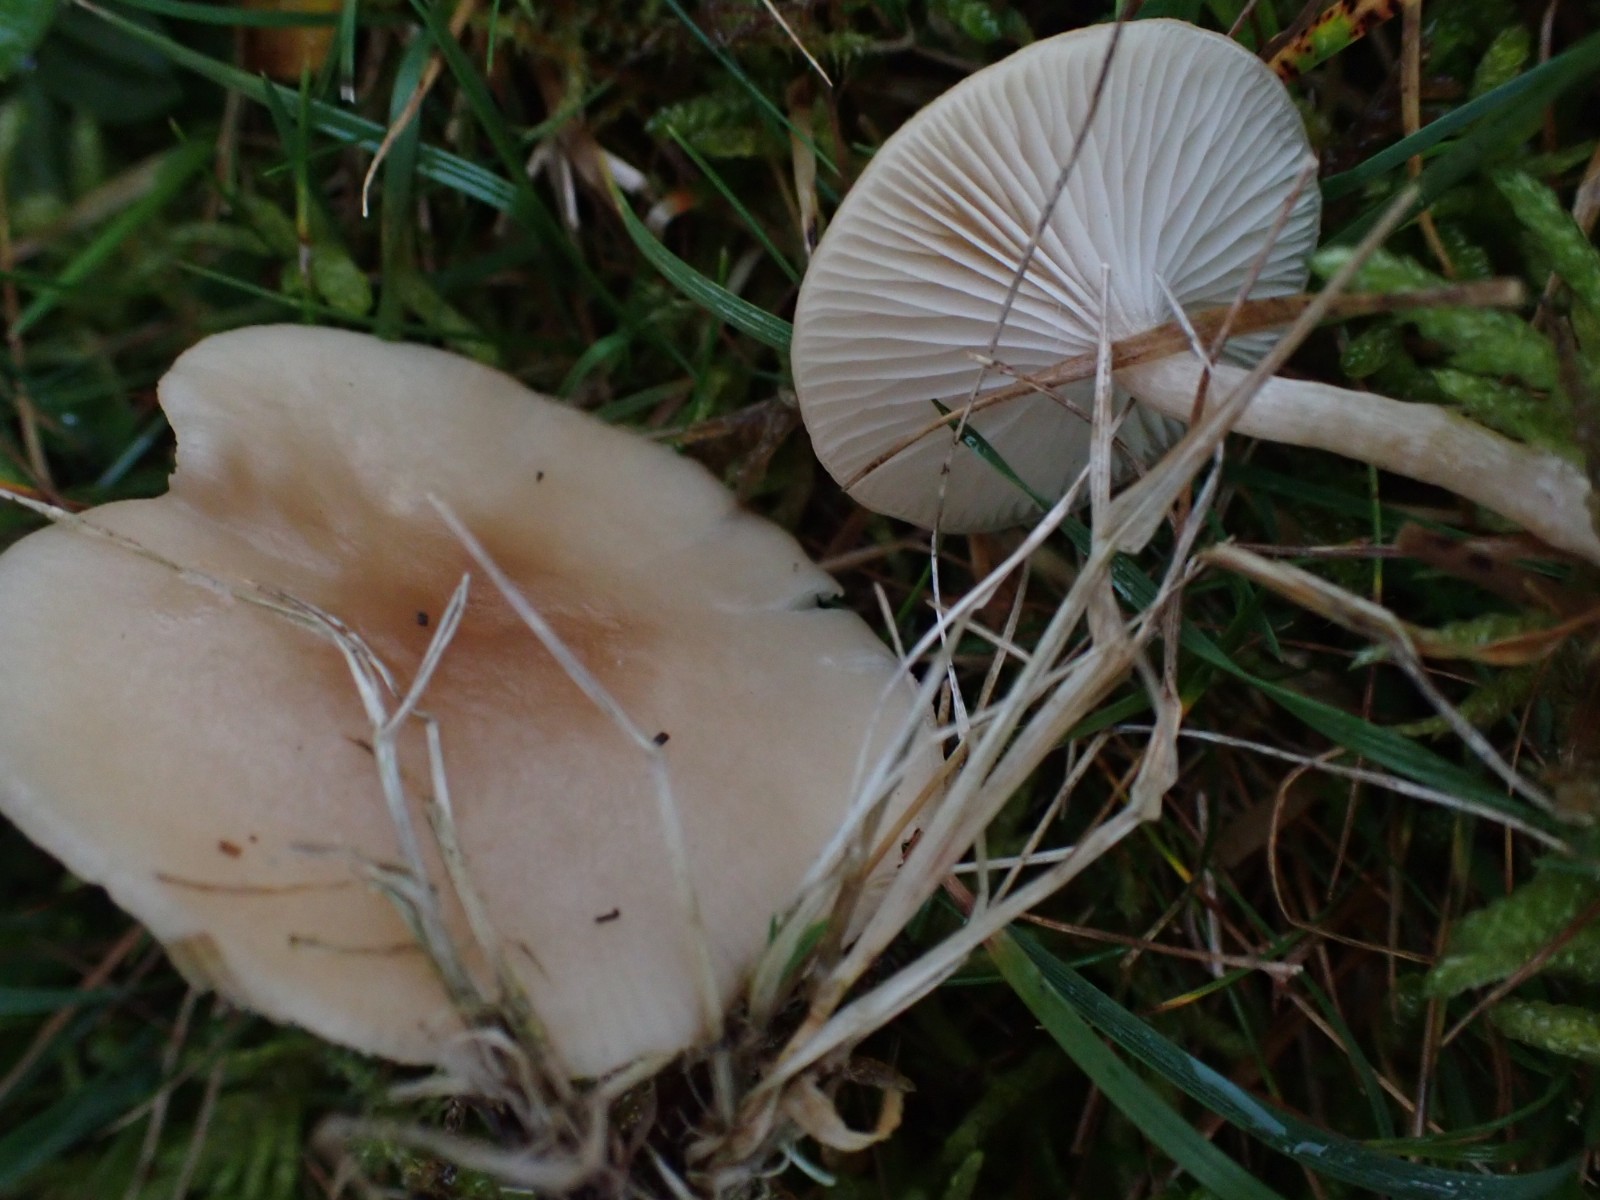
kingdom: Fungi
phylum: Basidiomycota
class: Agaricomycetes
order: Agaricales
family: Tricholomataceae
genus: Clitocybe
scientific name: Clitocybe fragrans
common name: vellugtende tragthat
